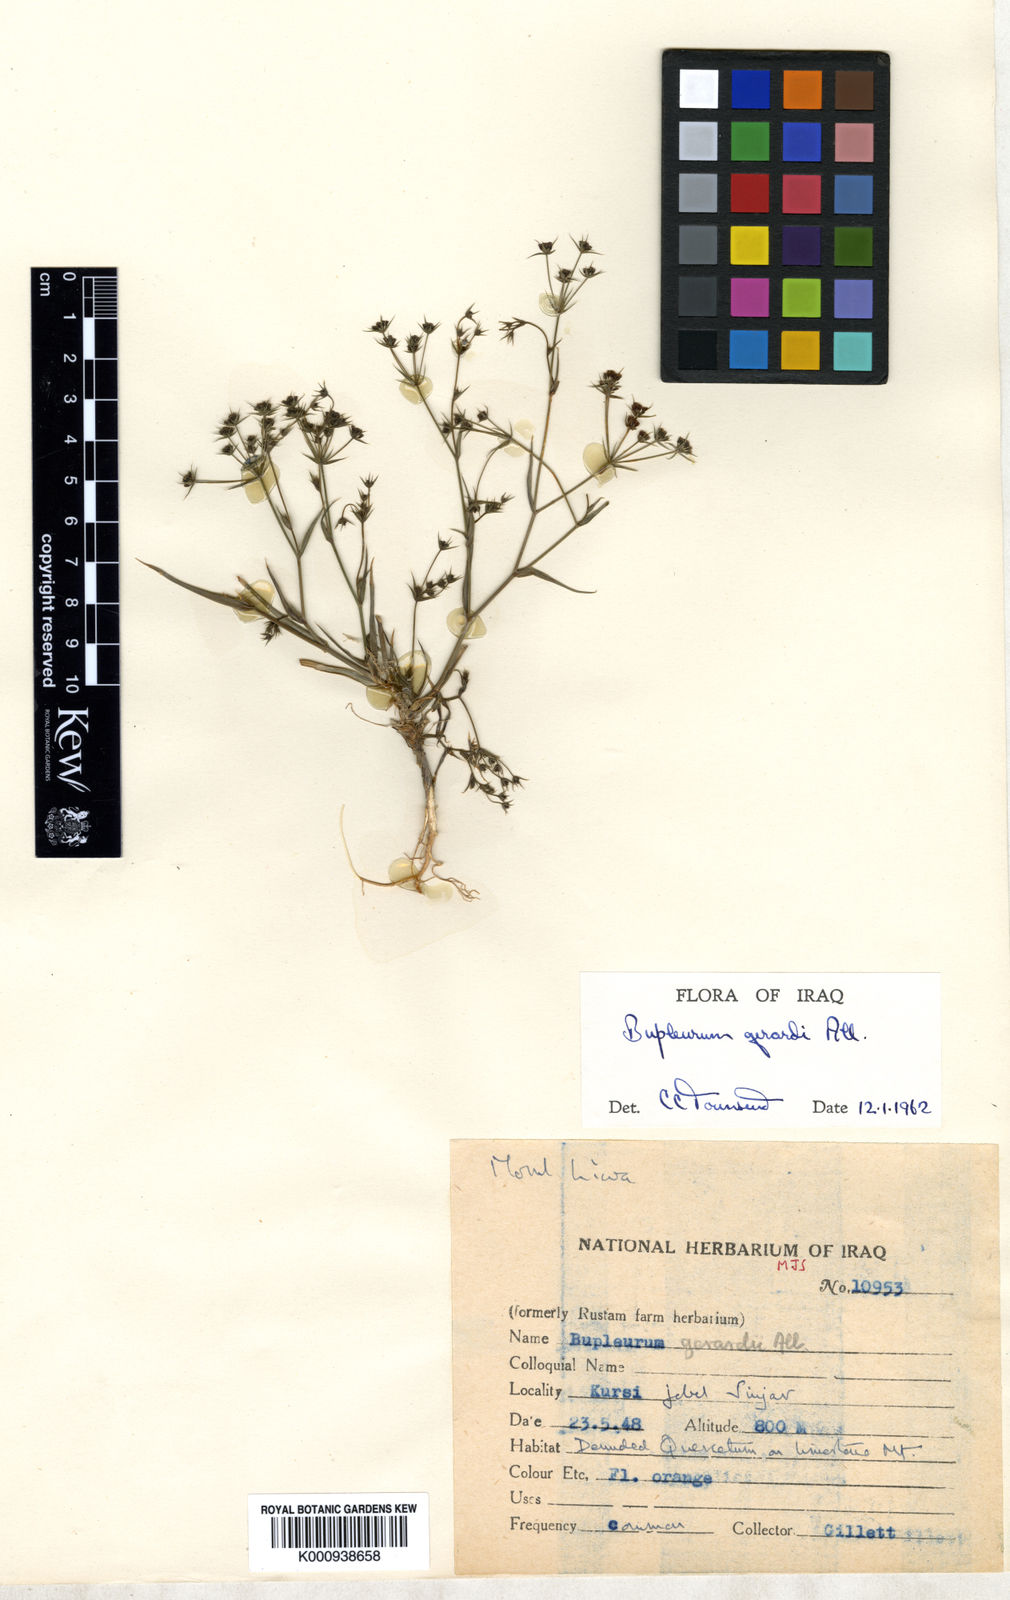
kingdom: Plantae
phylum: Tracheophyta
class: Magnoliopsida
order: Apiales
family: Apiaceae
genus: Bupleurum
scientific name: Bupleurum
